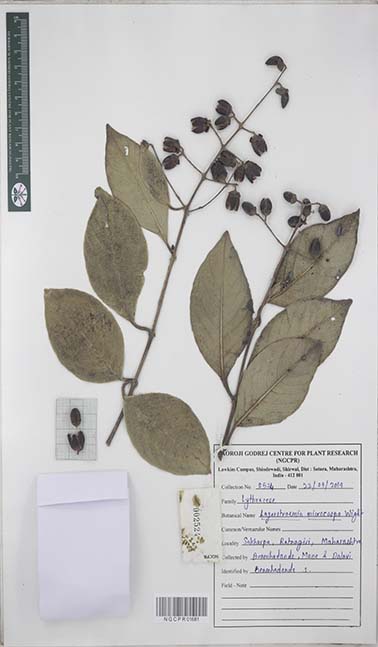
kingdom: Plantae
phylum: Tracheophyta
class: Magnoliopsida
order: Myrtales
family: Lythraceae
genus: Lagerstroemia
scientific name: Lagerstroemia microcarpa
